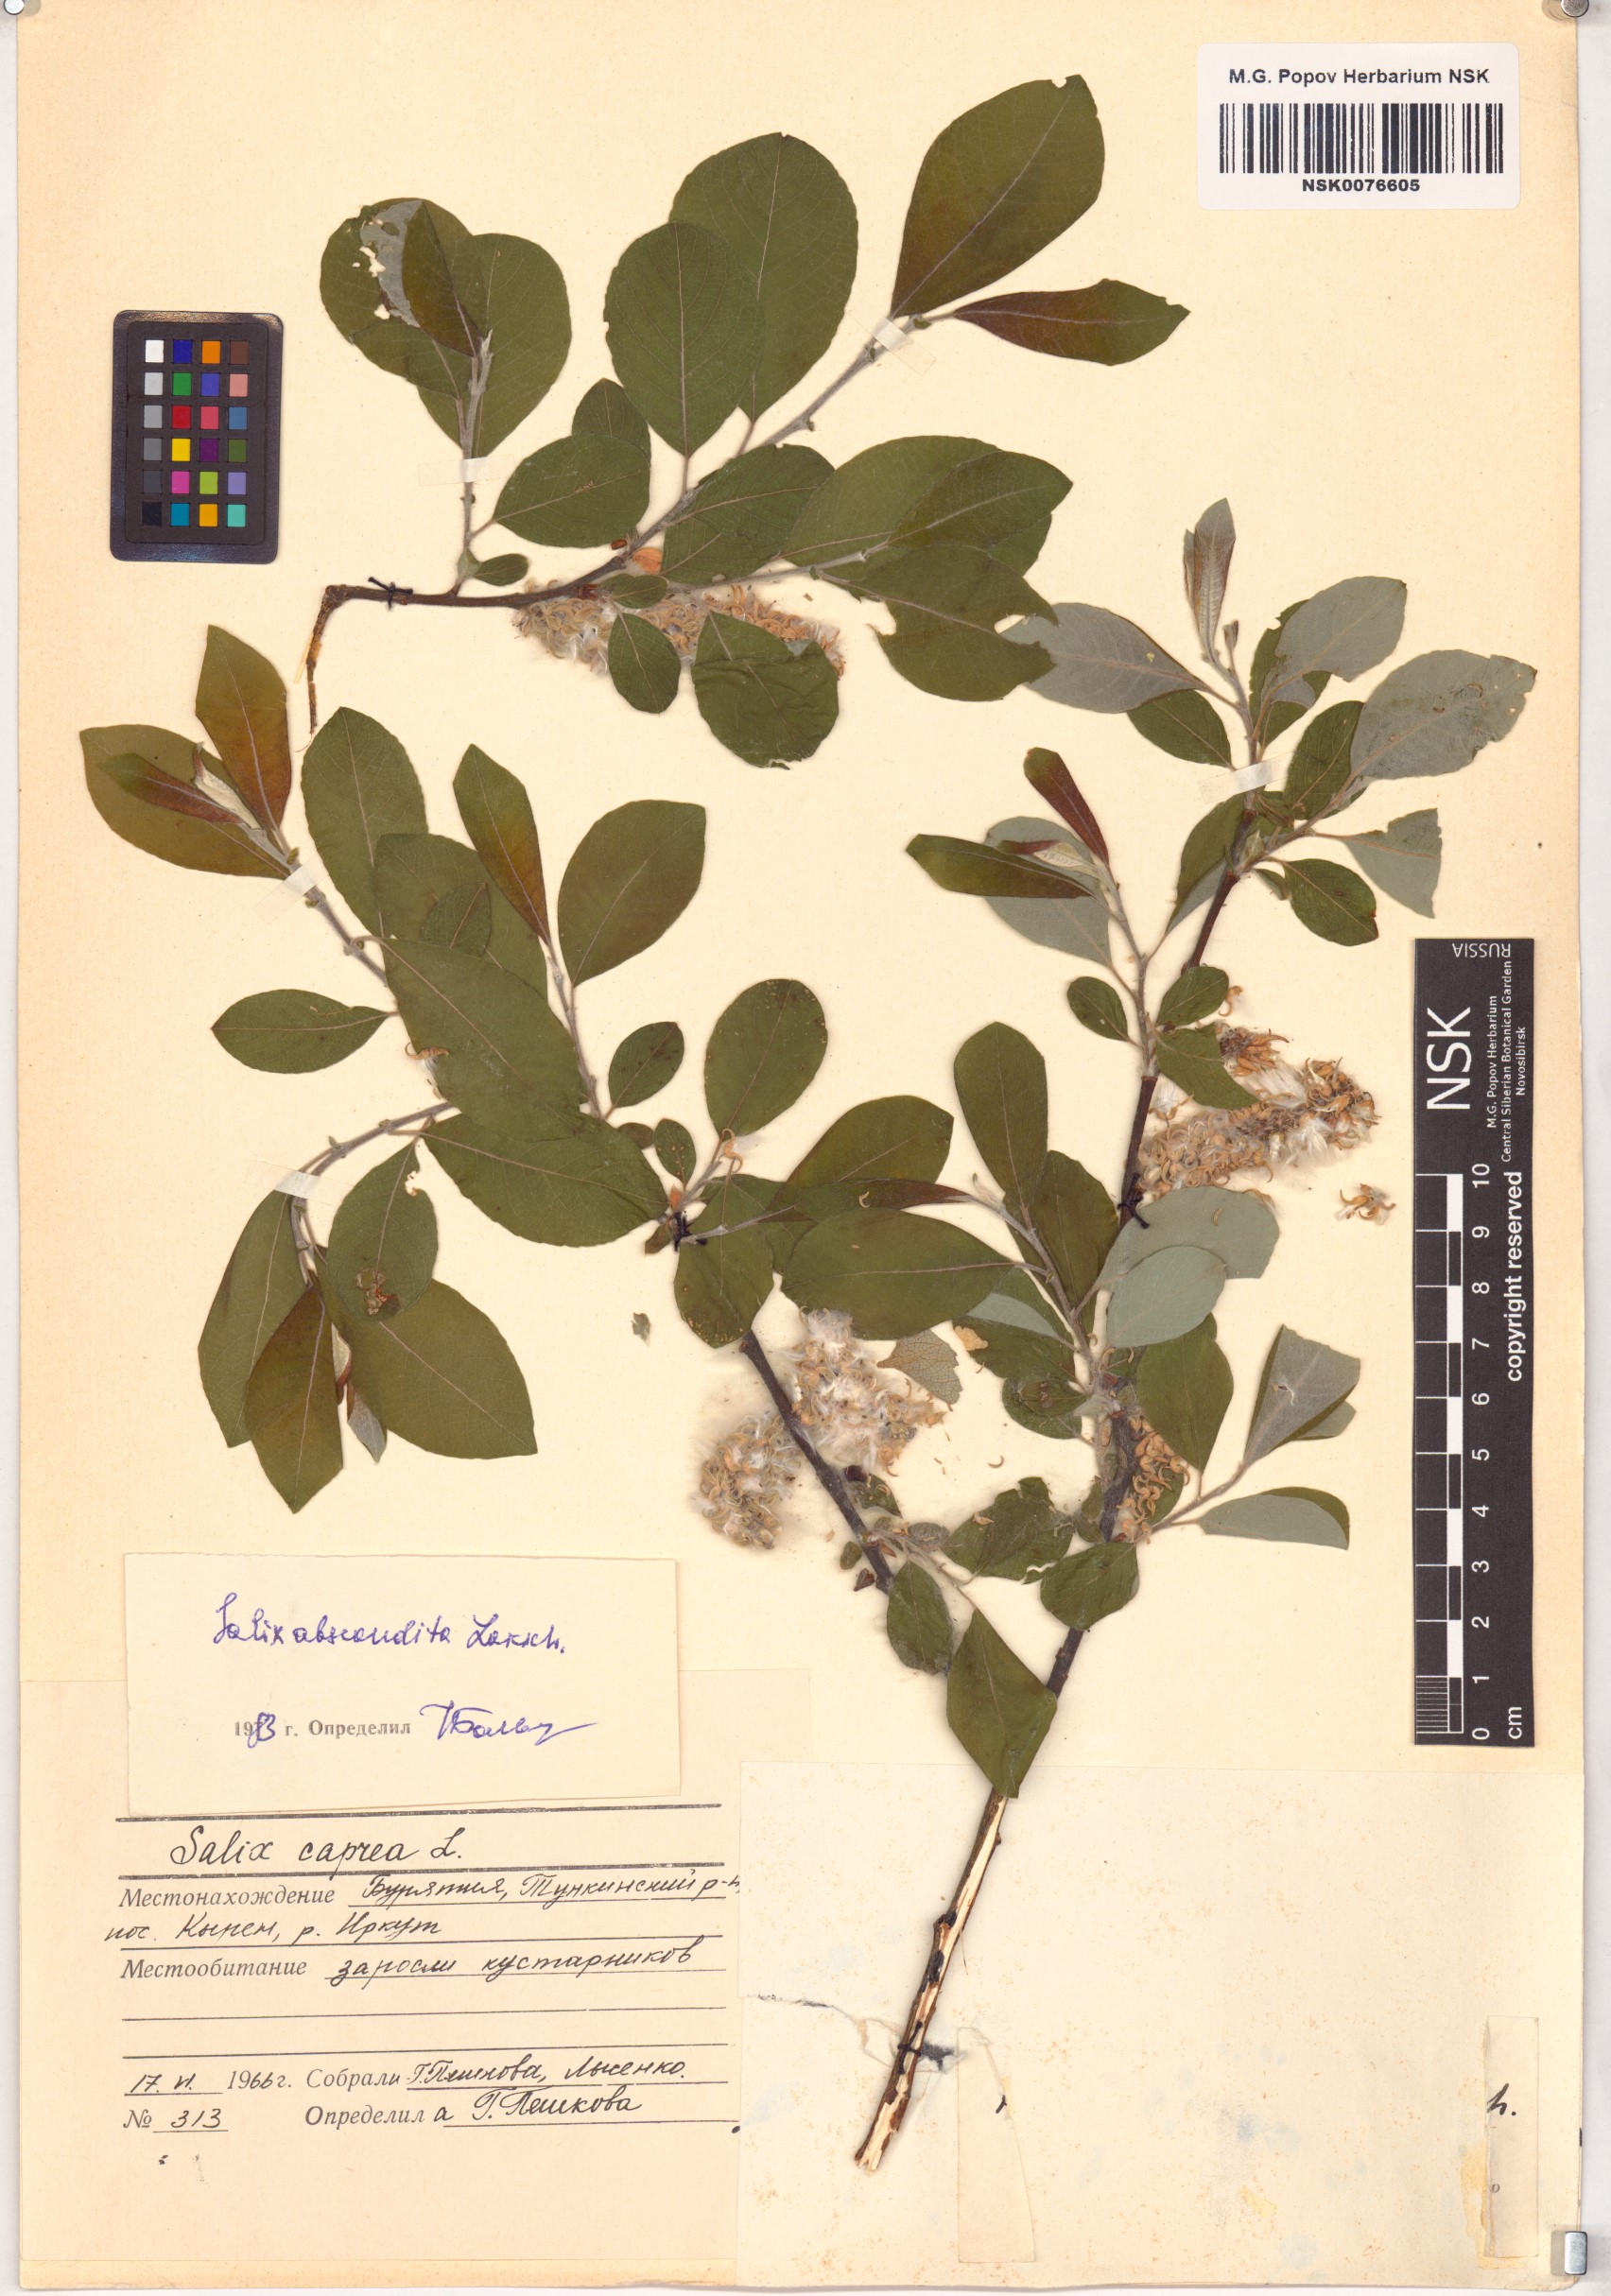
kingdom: Plantae
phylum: Tracheophyta
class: Magnoliopsida
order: Malpighiales
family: Salicaceae
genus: Salix
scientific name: Salix abscondita
